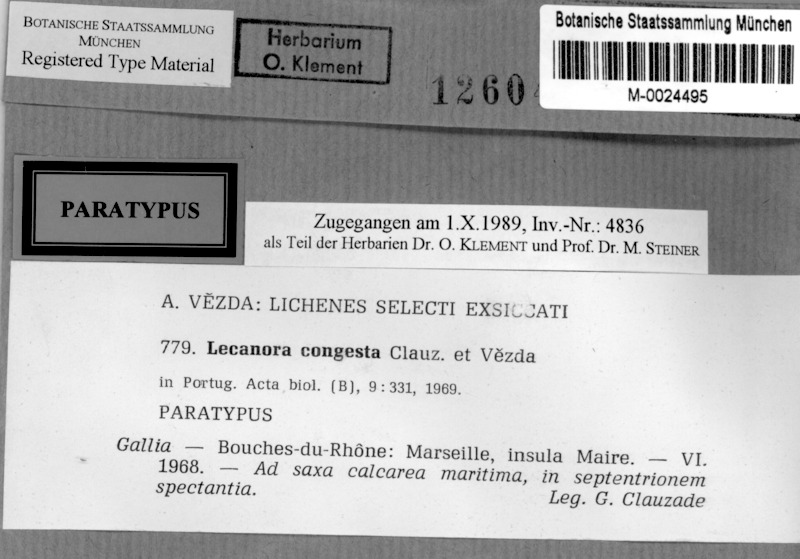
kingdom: Fungi
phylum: Ascomycota
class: Lecanoromycetes
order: Lecanorales
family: Lecanoraceae
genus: Polyozosia
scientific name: Polyozosia congesta
